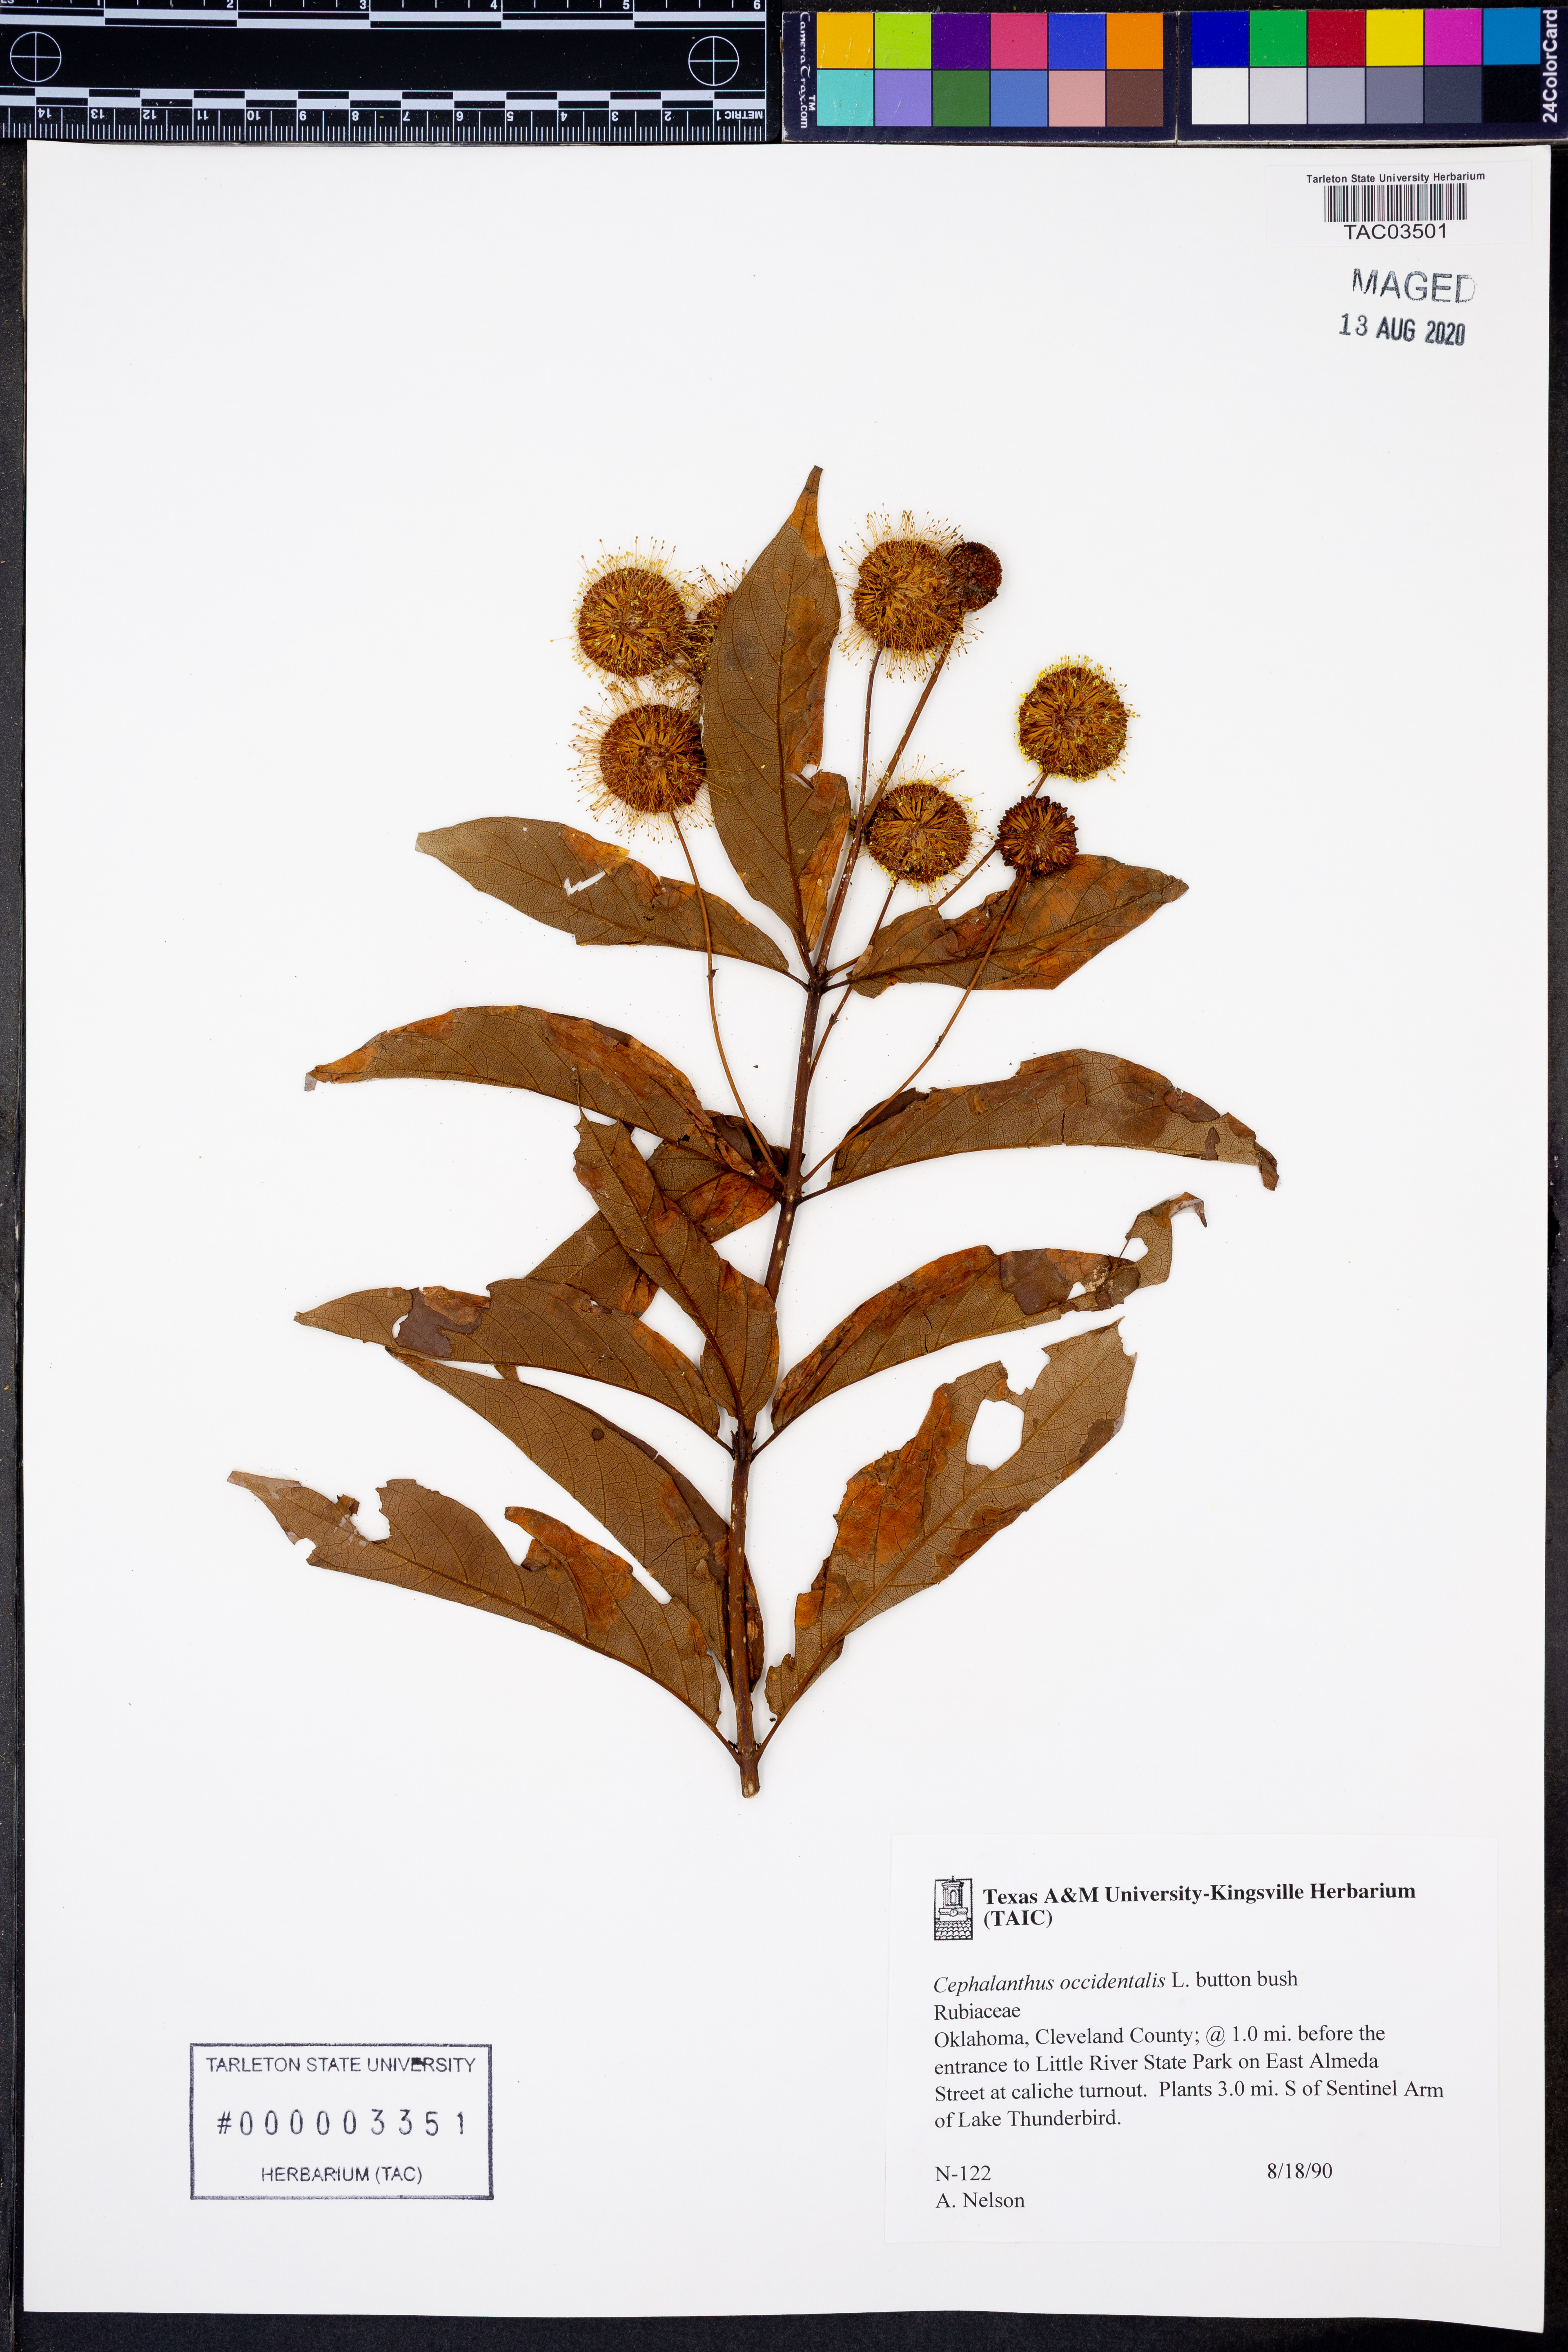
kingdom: Plantae
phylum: Tracheophyta
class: Magnoliopsida
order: Gentianales
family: Rubiaceae
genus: Cephalanthus
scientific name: Cephalanthus occidentalis
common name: Button-willow
